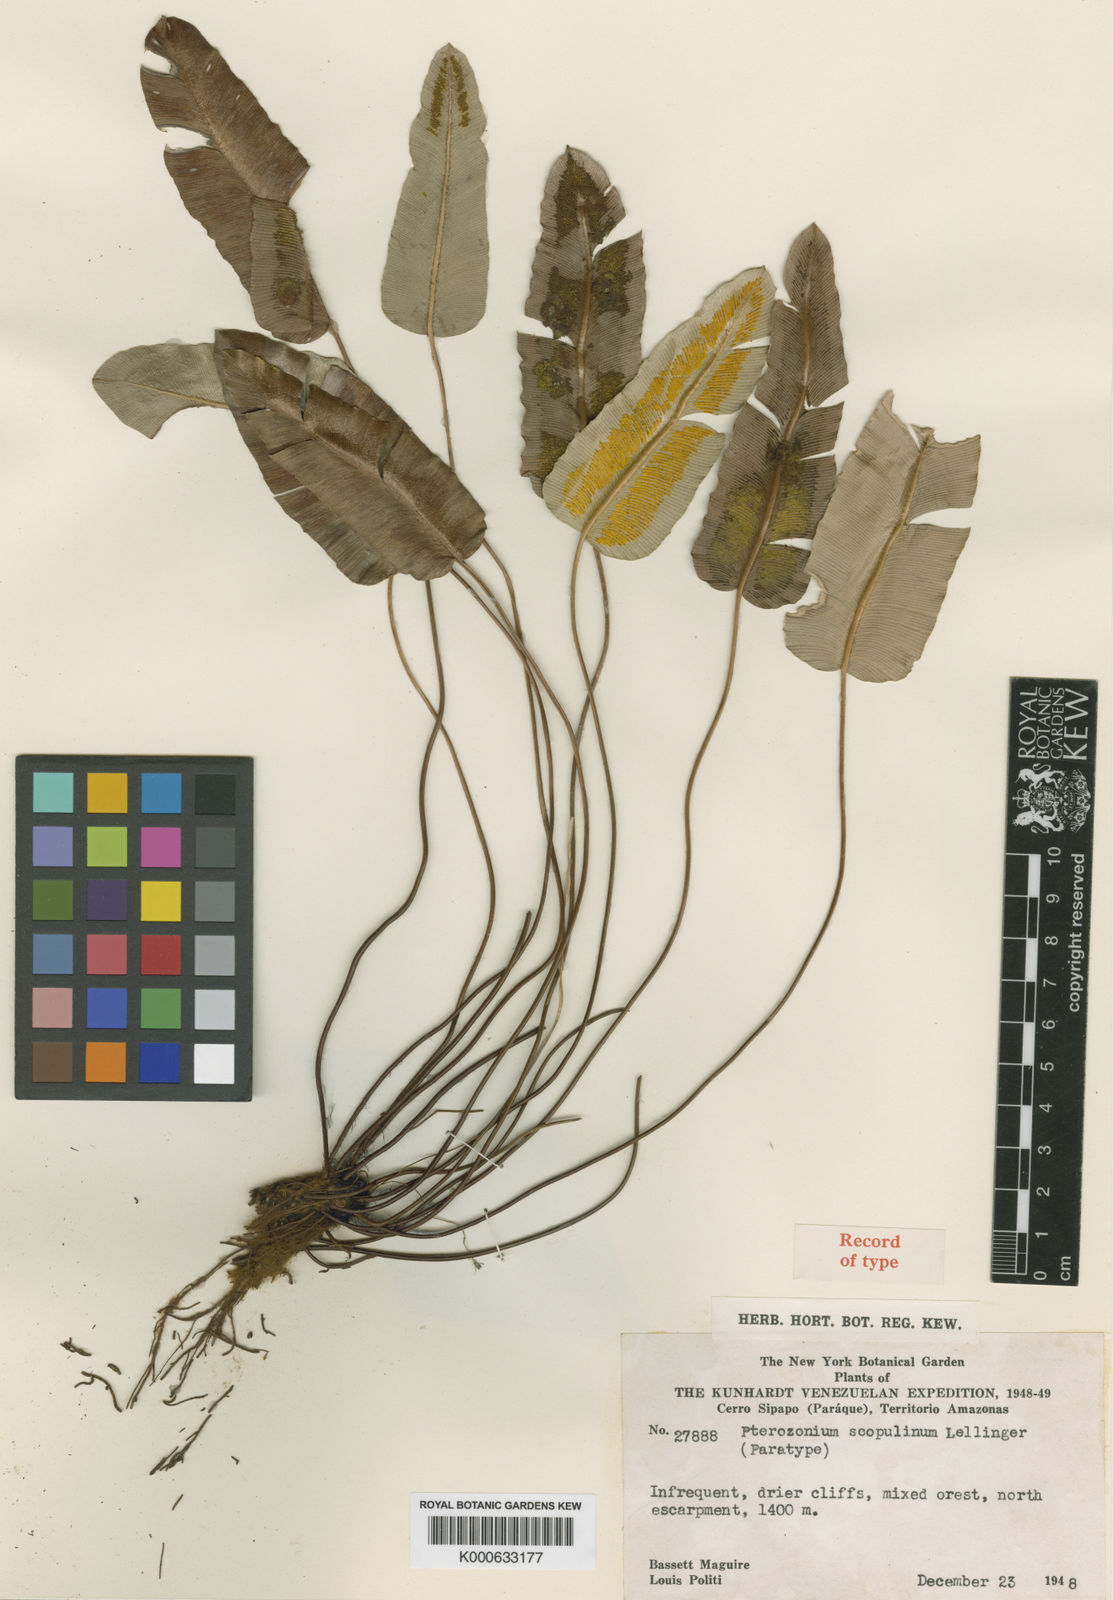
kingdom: Plantae
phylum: Tracheophyta
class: Polypodiopsida
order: Polypodiales
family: Pteridaceae
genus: Pterozonium
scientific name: Pterozonium scopulinum
